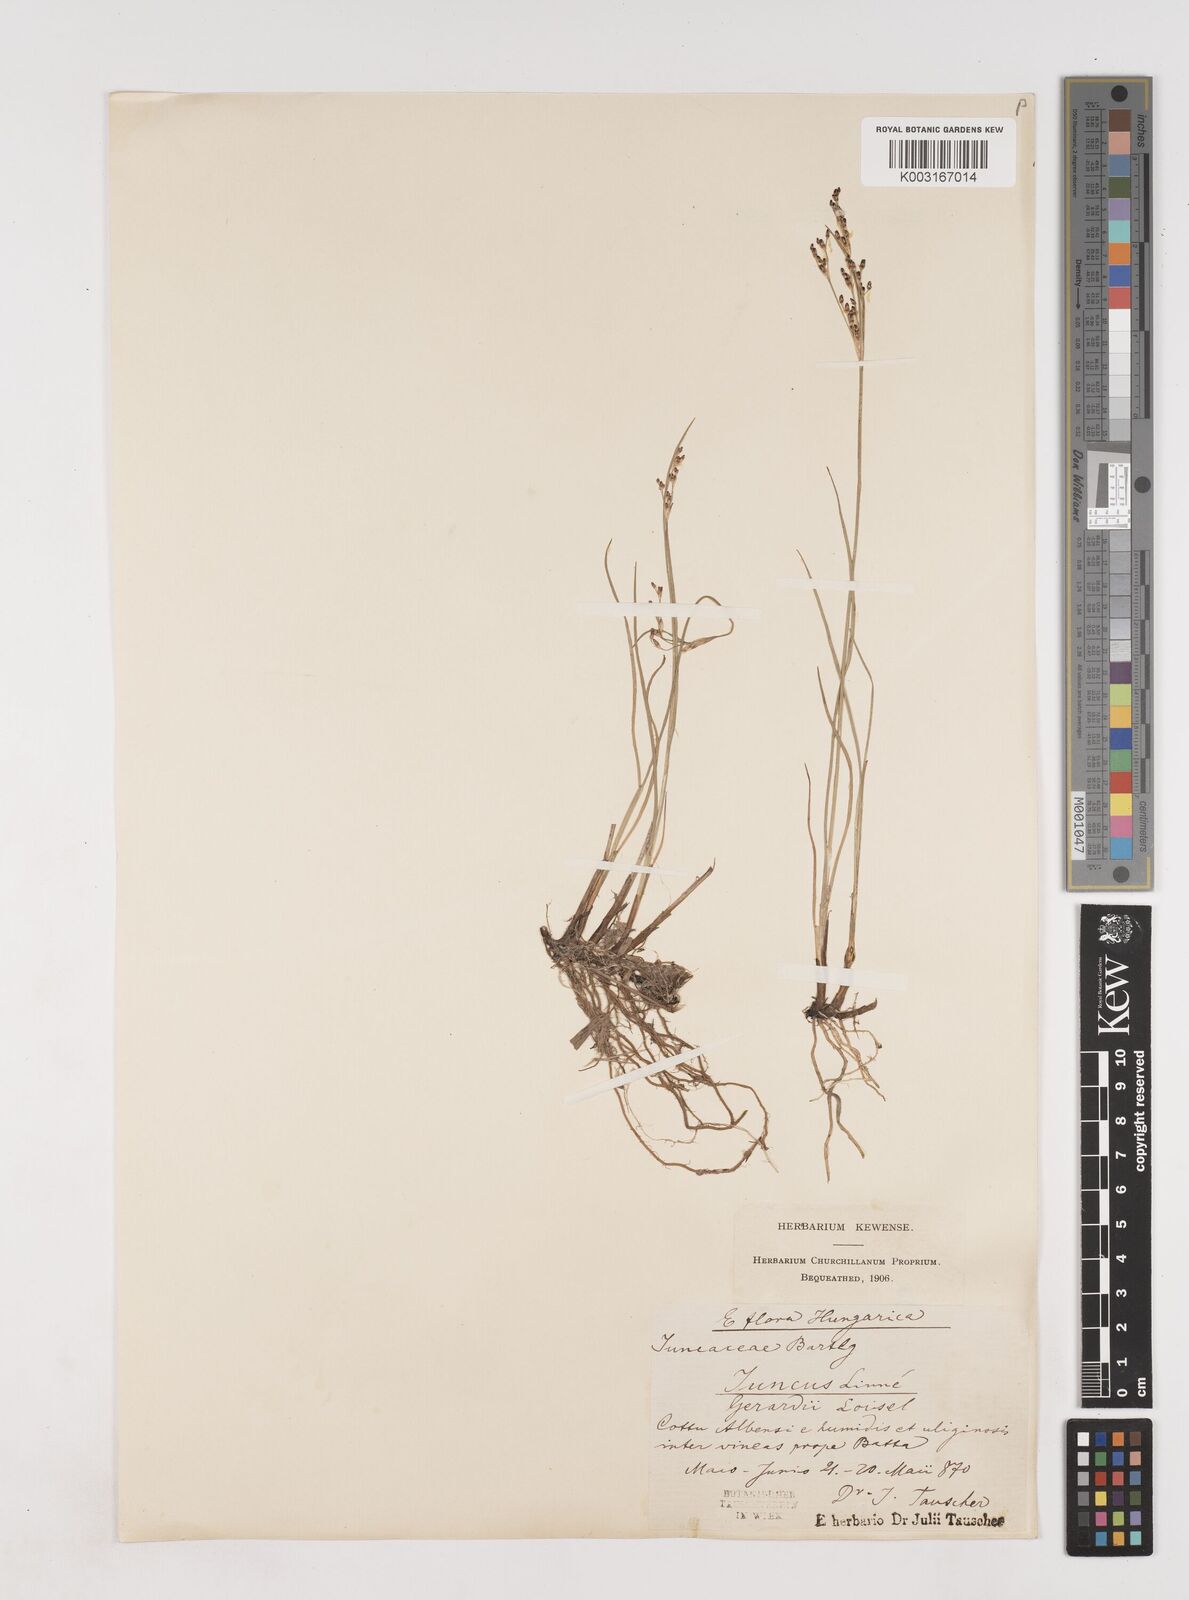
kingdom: Plantae
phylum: Tracheophyta
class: Liliopsida
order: Poales
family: Juncaceae
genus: Juncus
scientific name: Juncus gerardi
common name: Saltmarsh rush
